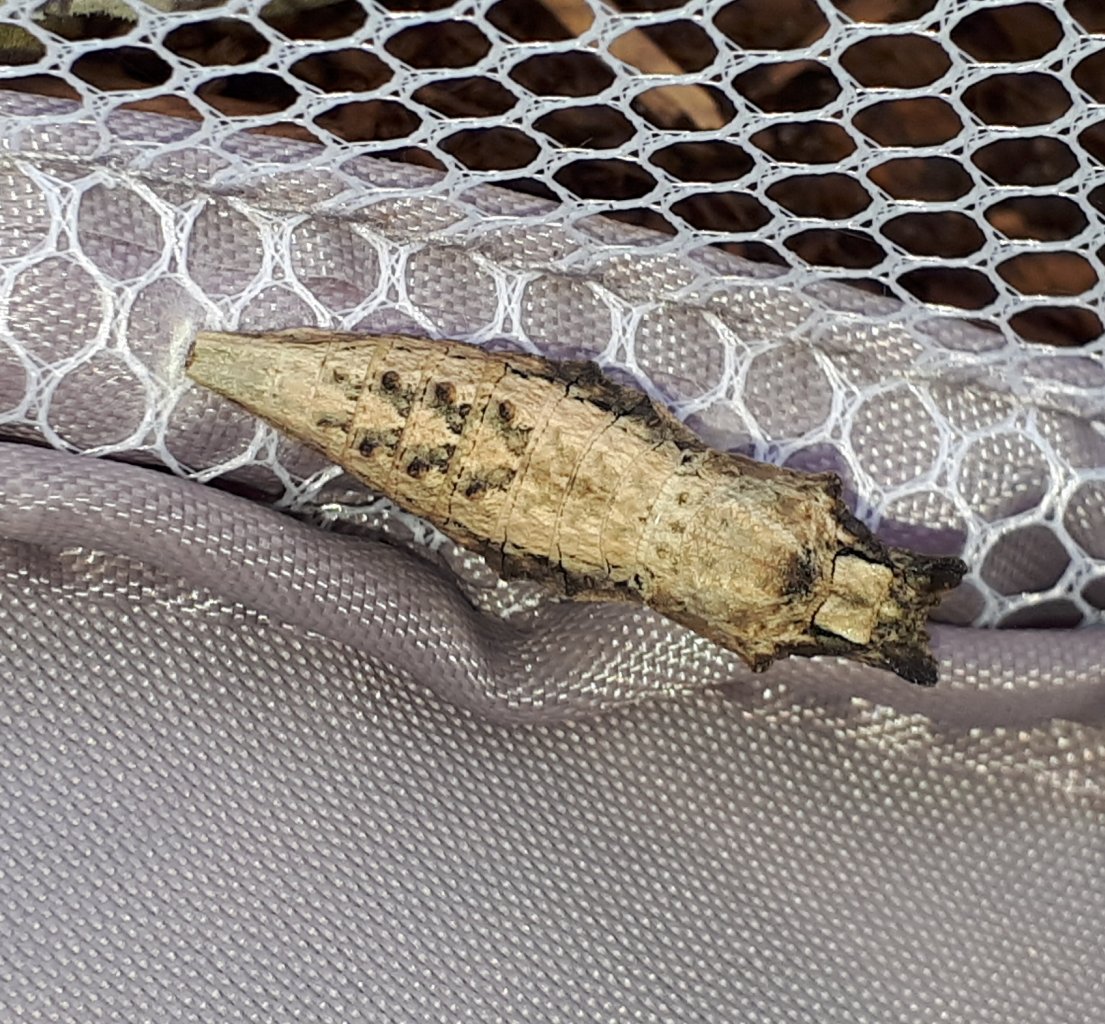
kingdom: Animalia
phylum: Arthropoda
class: Insecta
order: Lepidoptera
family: Papilionidae
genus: Papilio
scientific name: Papilio polyxenes
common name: Black Swallowtail
